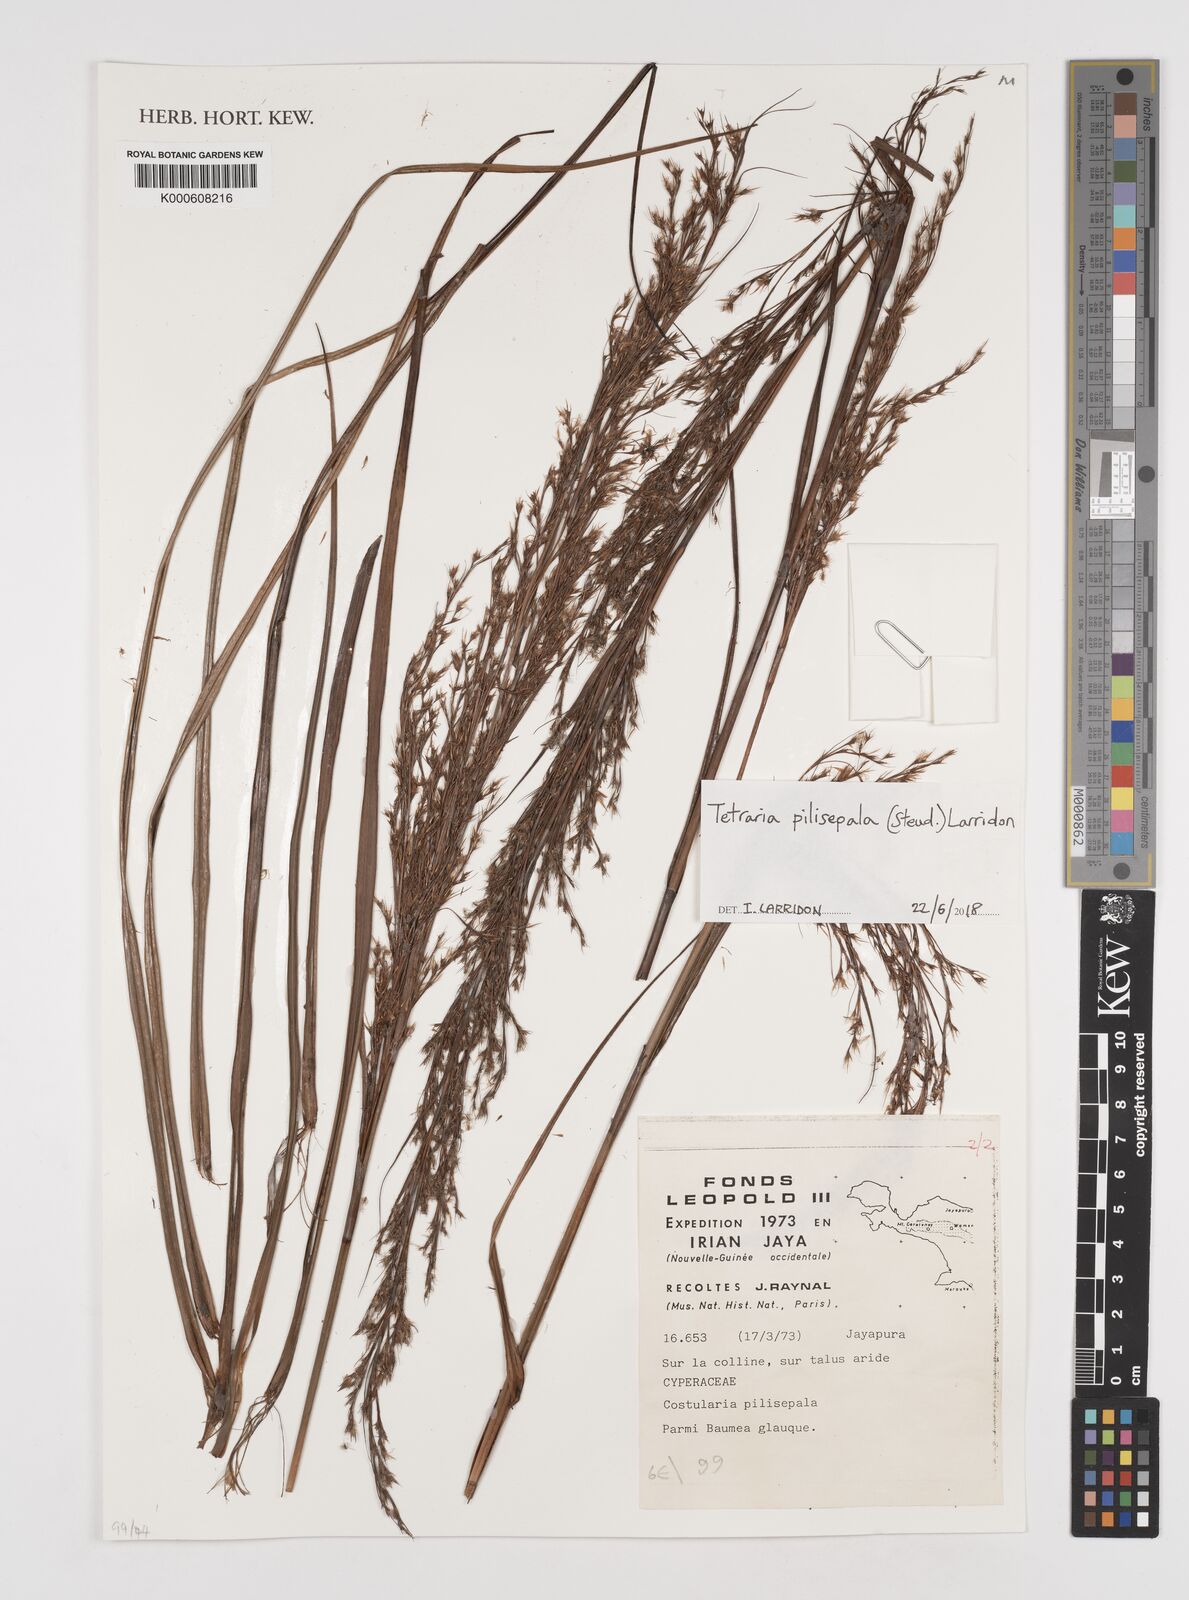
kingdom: Plantae
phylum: Tracheophyta
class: Liliopsida
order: Poales
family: Cyperaceae
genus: Tetraria
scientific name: Tetraria pilisepala
